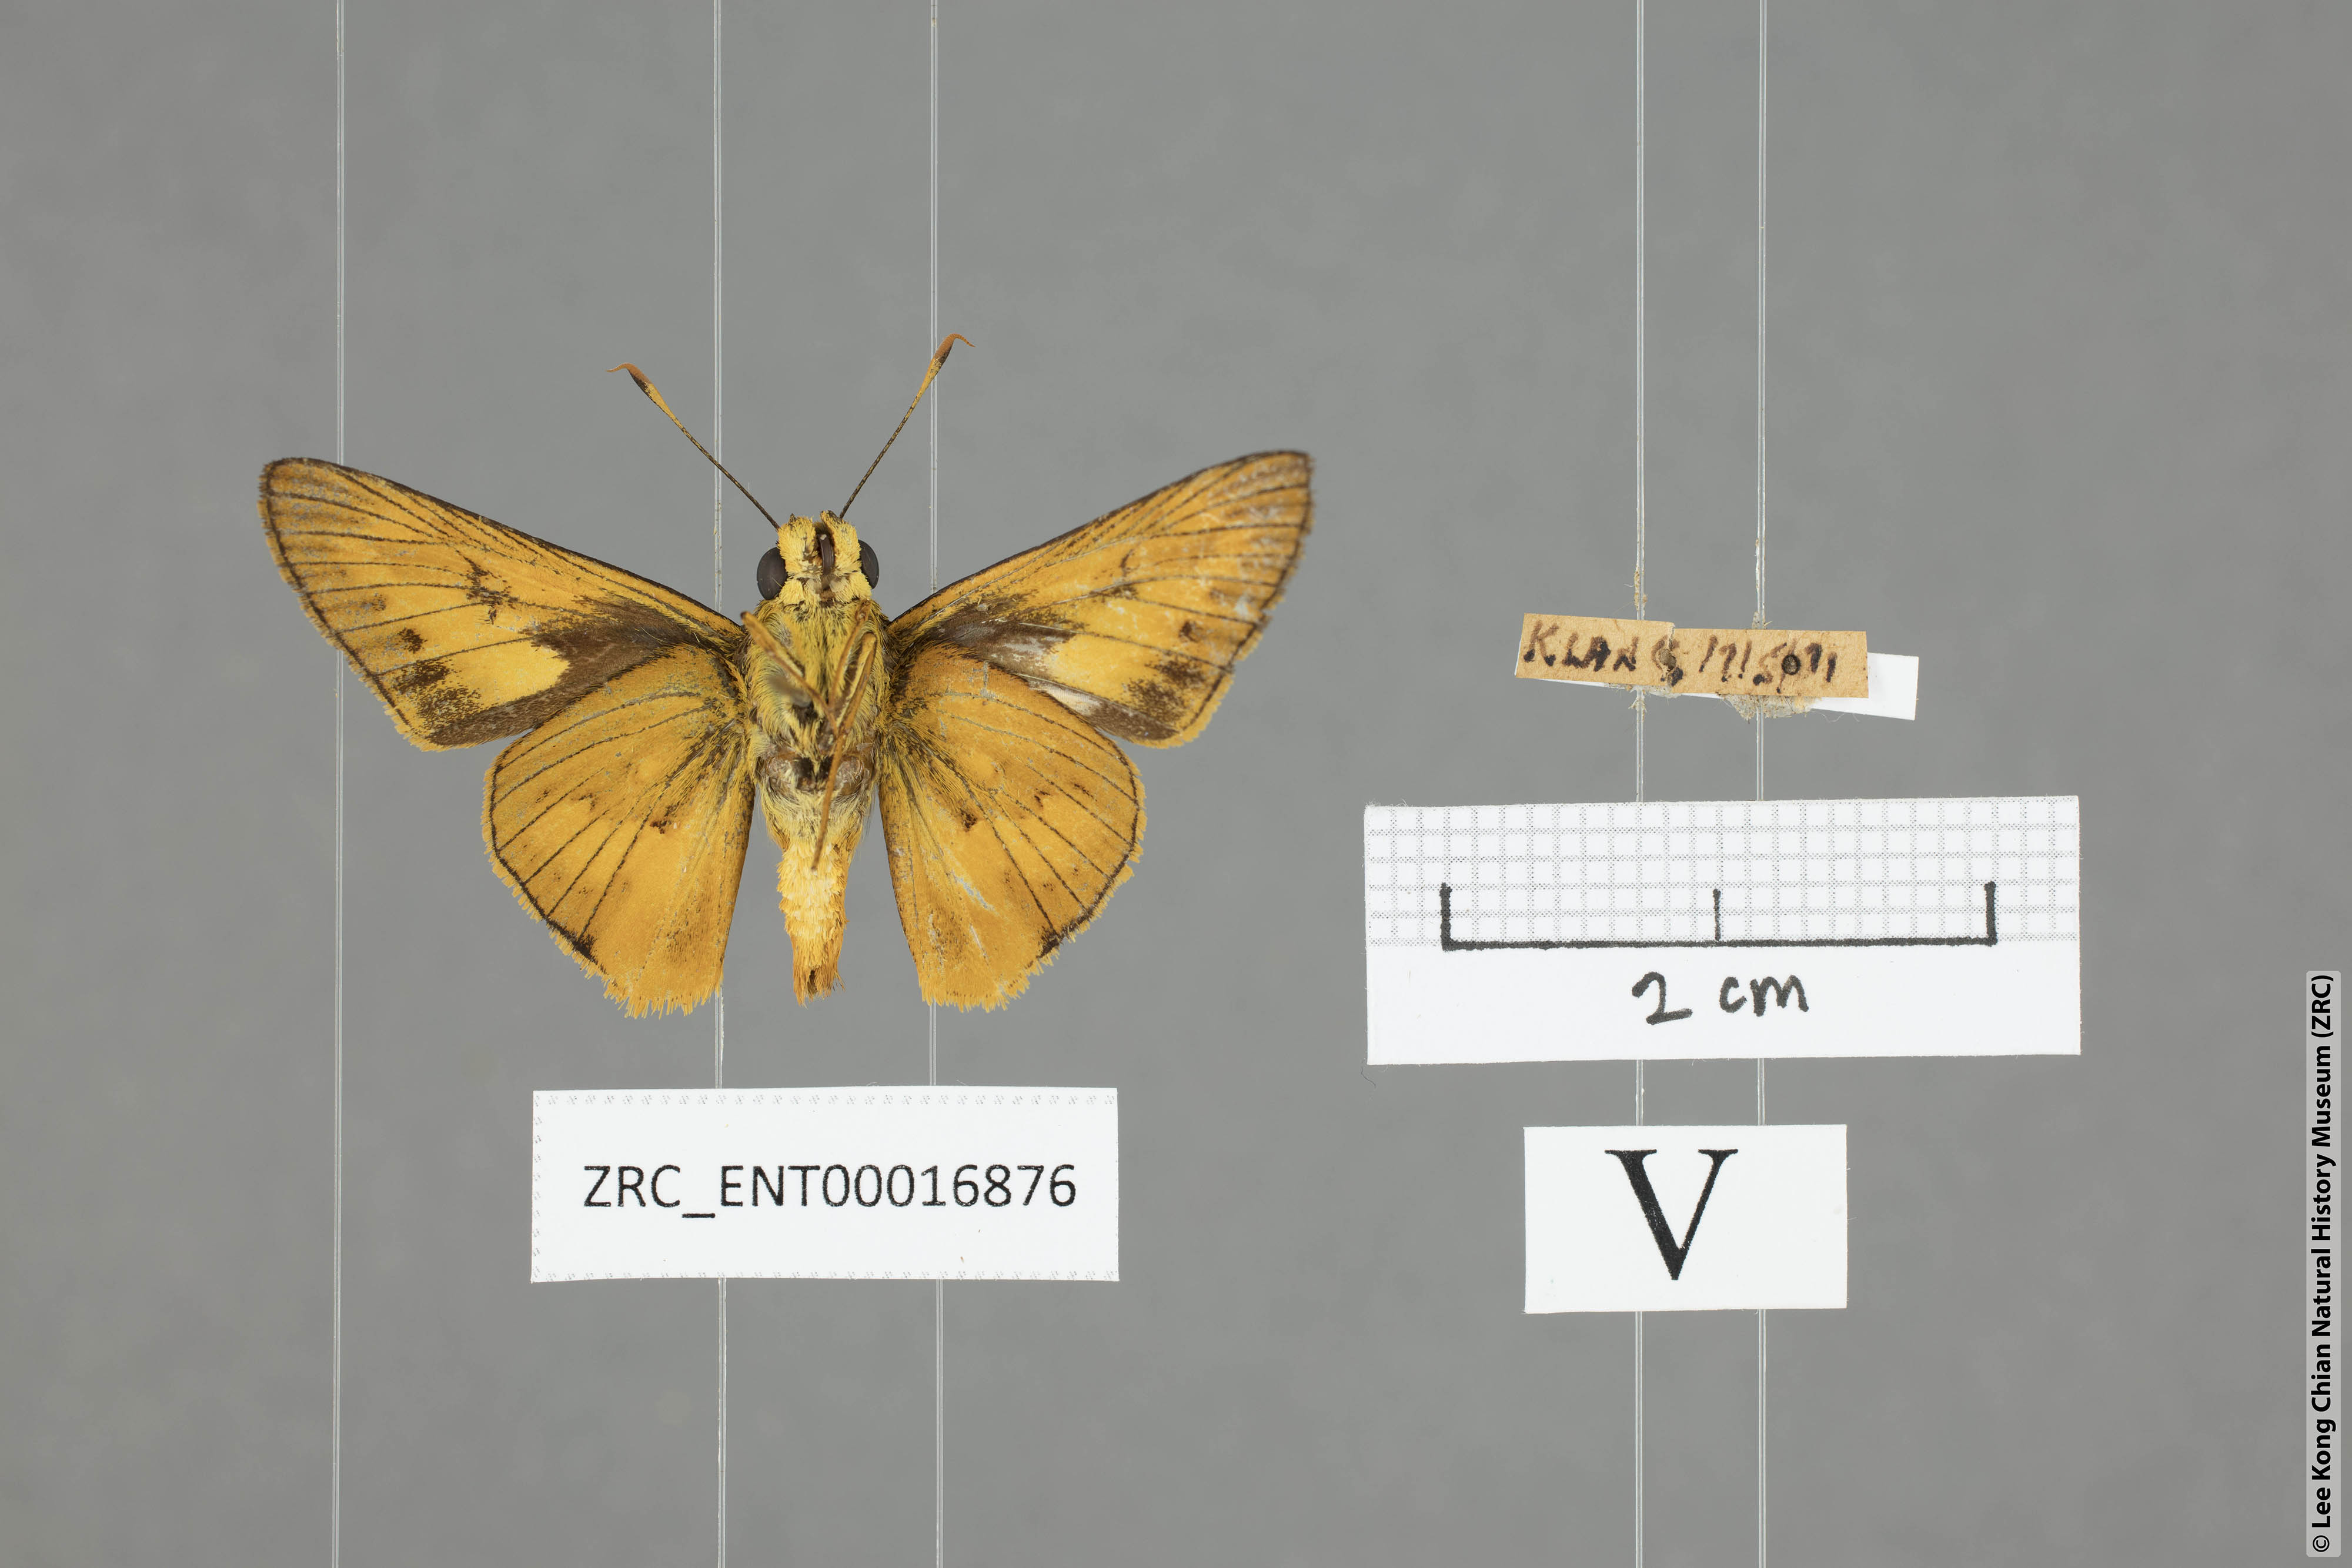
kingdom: Animalia
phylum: Arthropoda
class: Insecta
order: Lepidoptera
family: Hesperiidae
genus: Cephrenes
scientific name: Cephrenes
